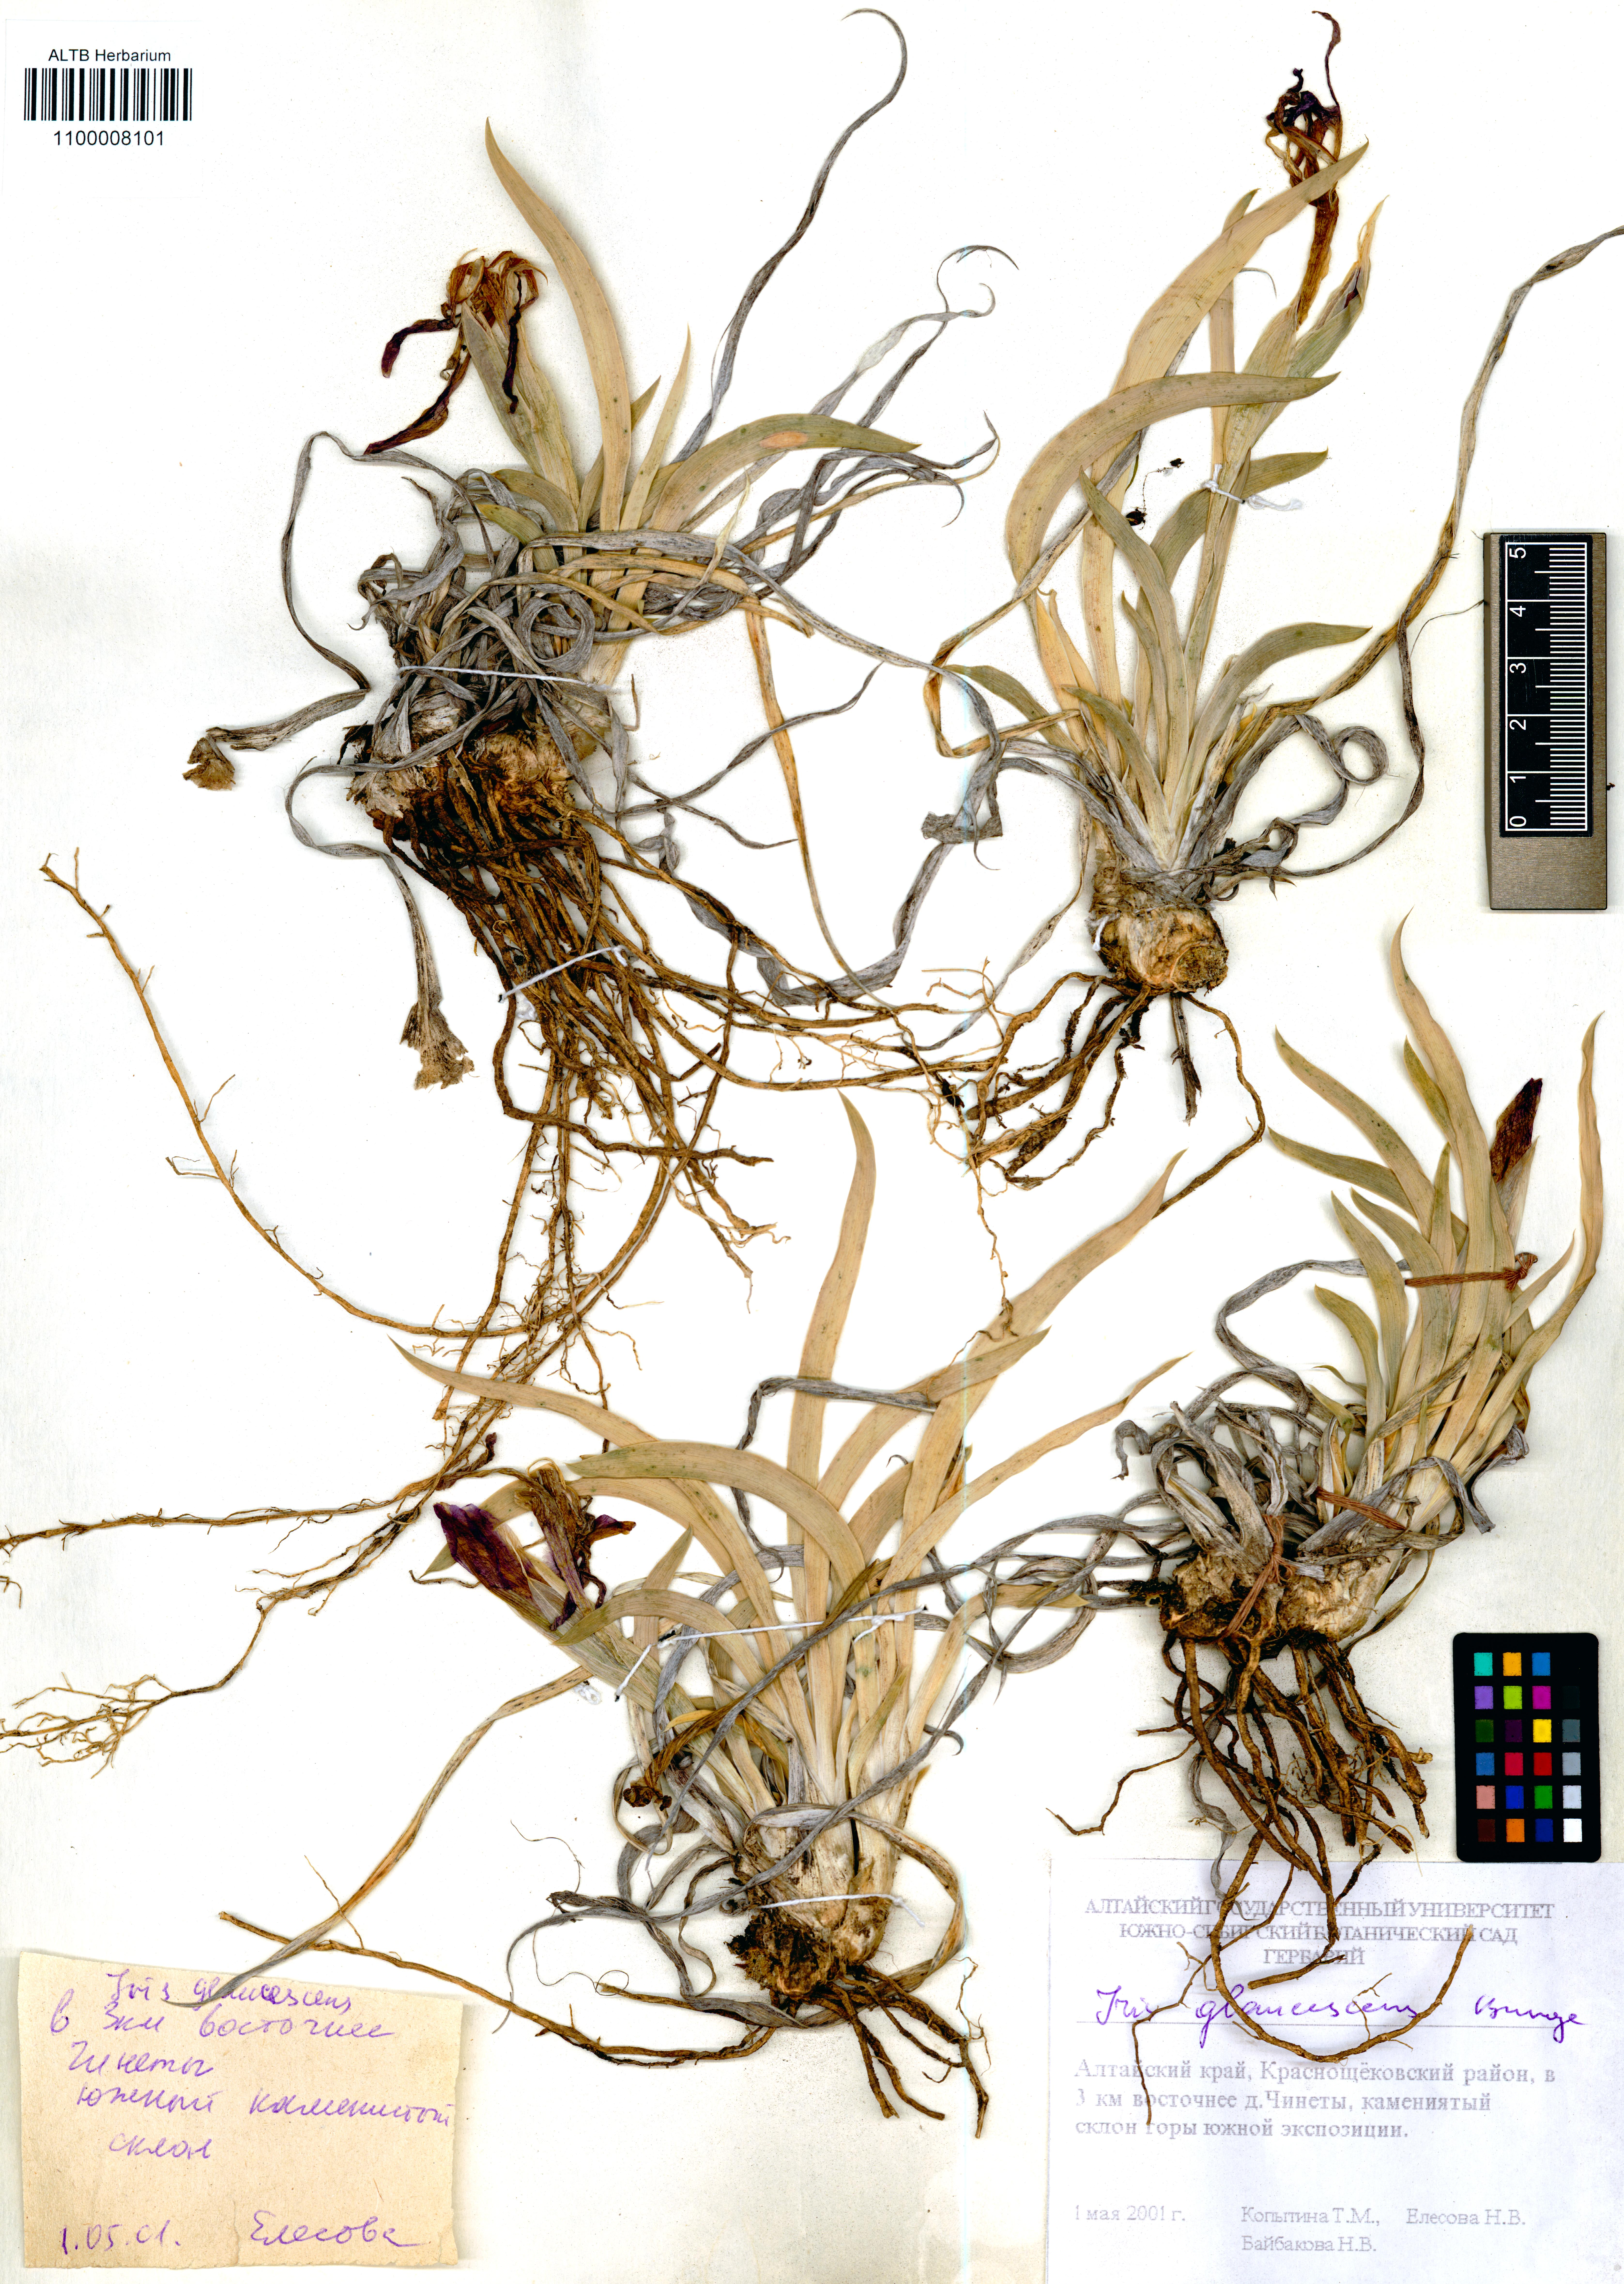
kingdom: Plantae
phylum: Tracheophyta
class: Liliopsida
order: Asparagales
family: Iridaceae
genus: Iris
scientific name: Iris glaucescens
